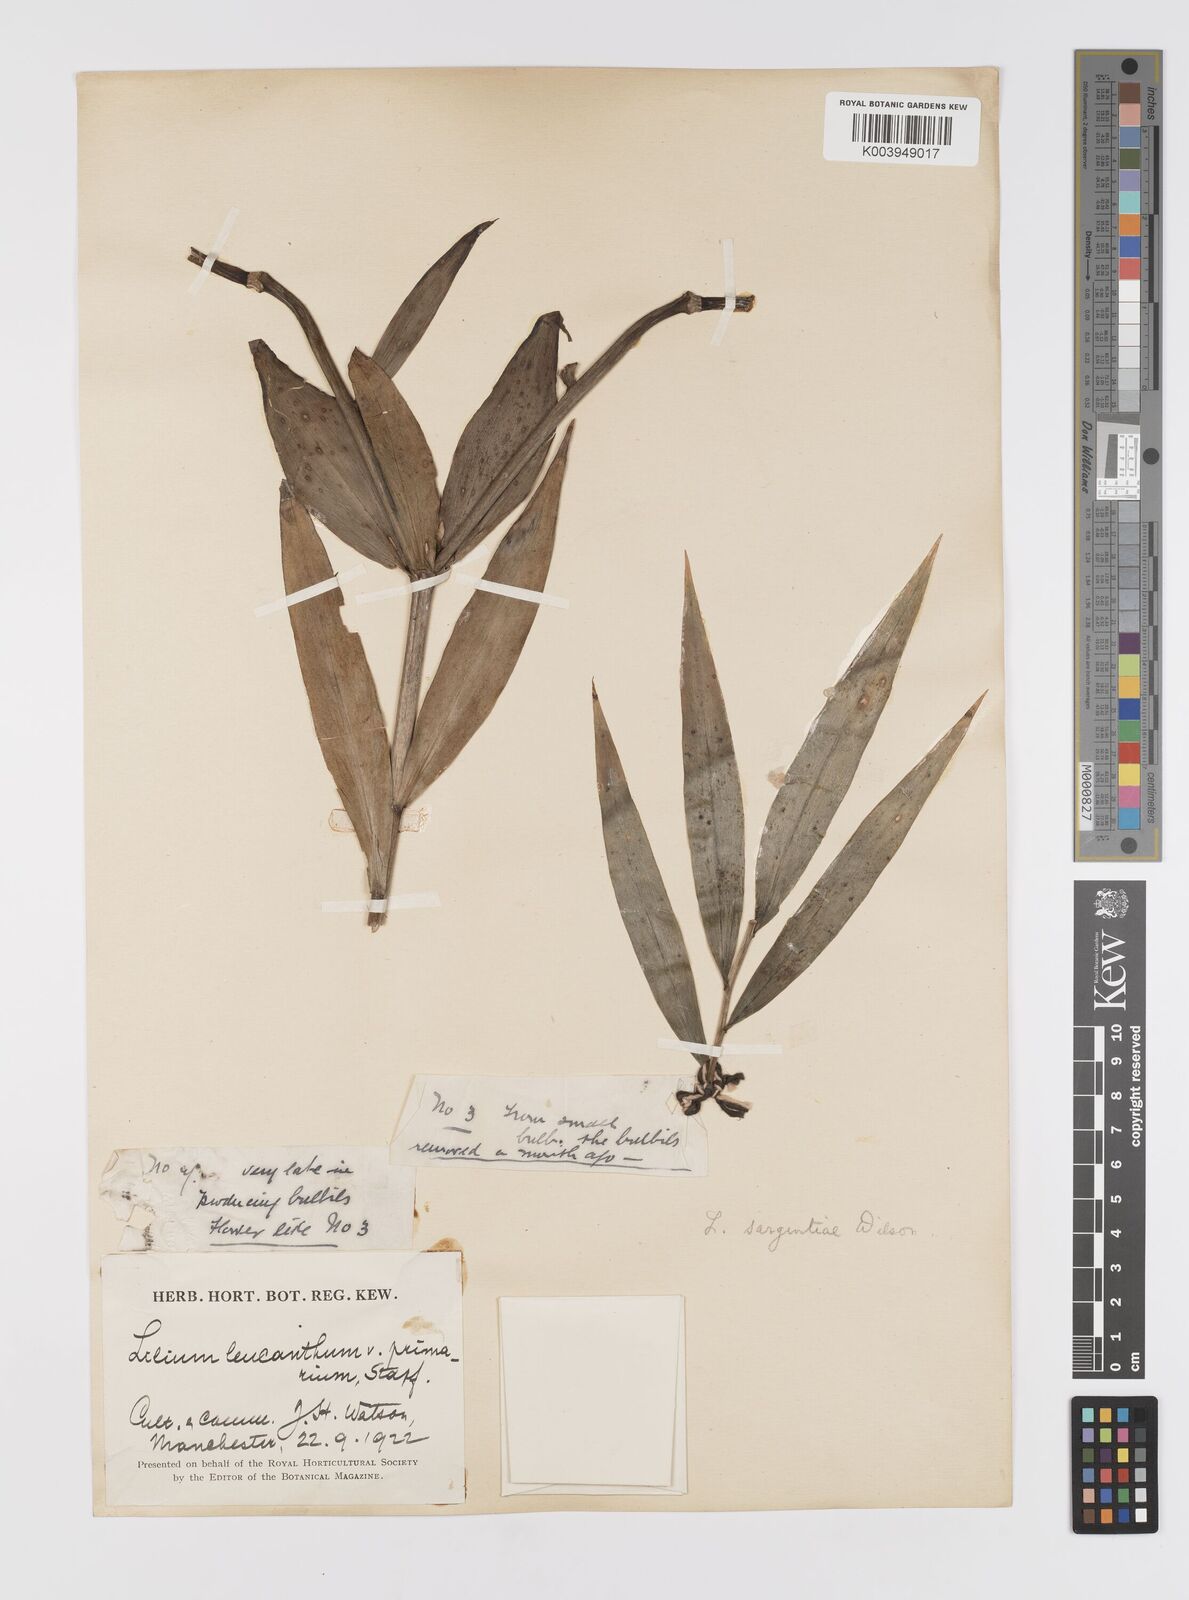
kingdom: Plantae
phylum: Tracheophyta
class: Liliopsida
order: Liliales
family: Liliaceae
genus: Lilium
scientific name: Lilium sargentiae
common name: Sargent lily
